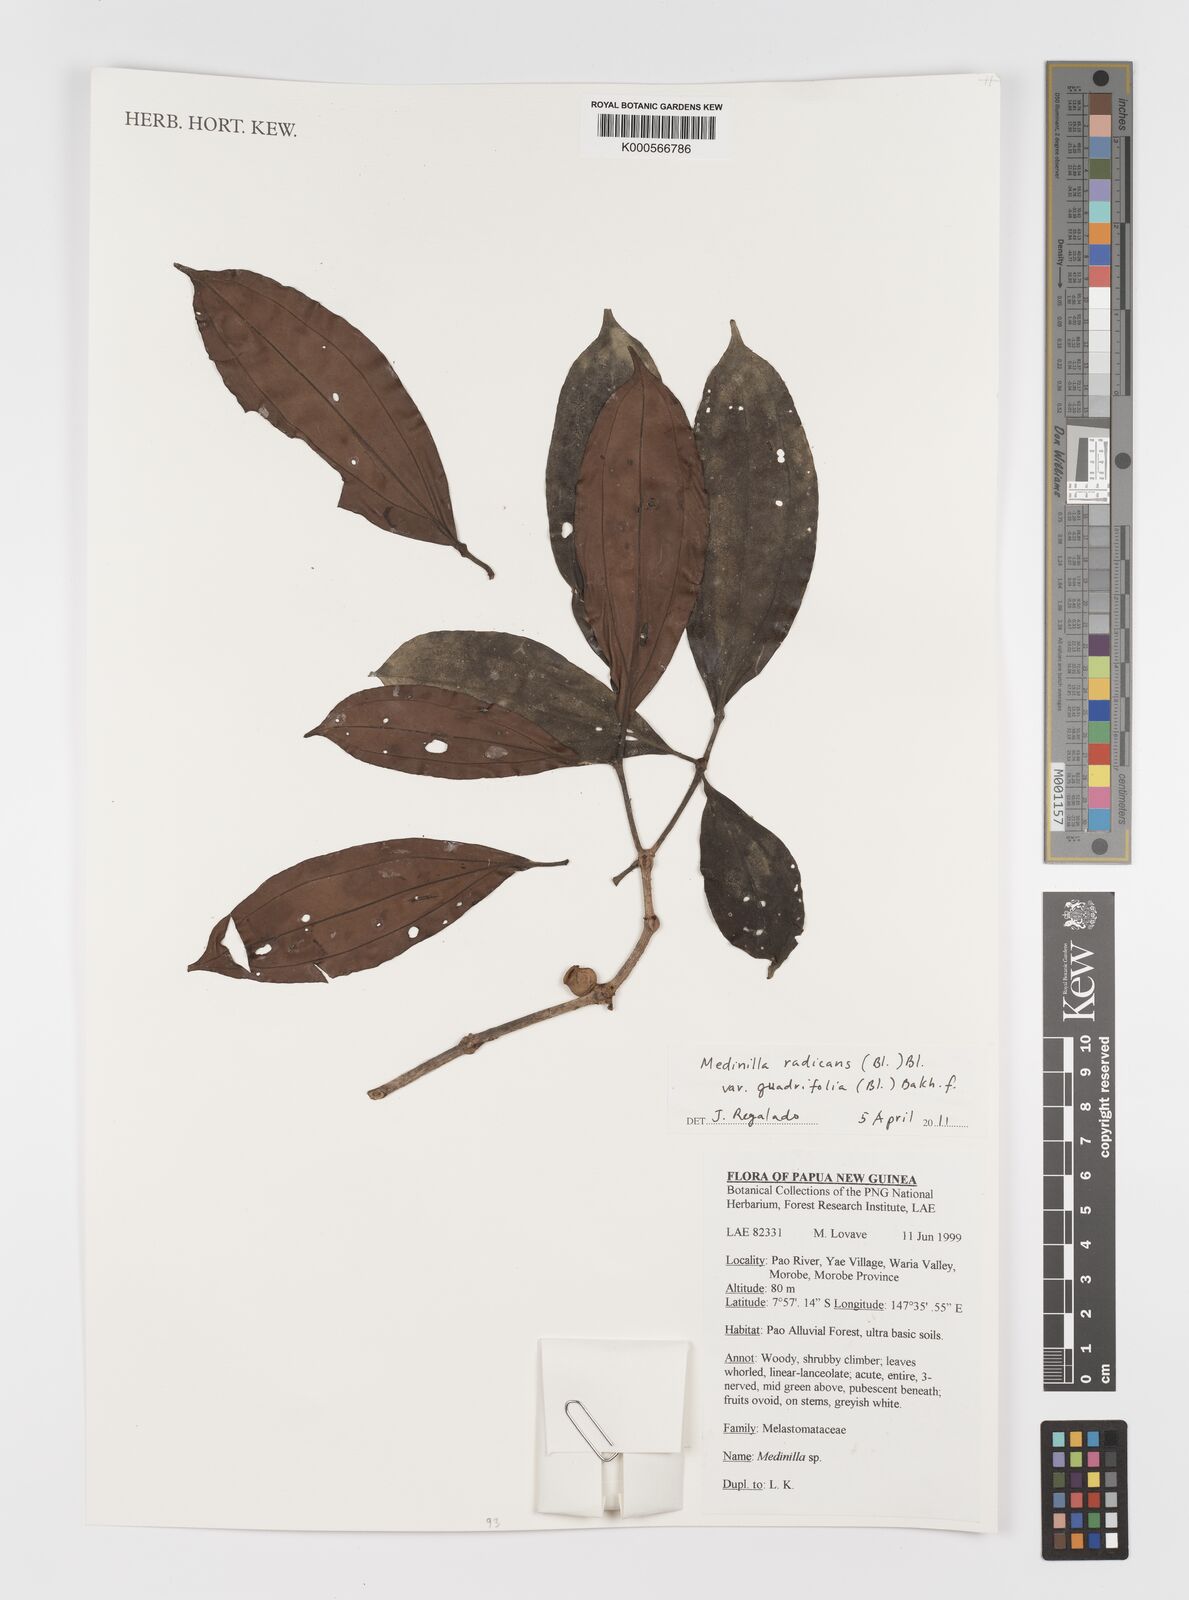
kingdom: Plantae
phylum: Tracheophyta
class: Magnoliopsida
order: Myrtales
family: Melastomataceae
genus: Medinilla
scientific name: Medinilla radicans
